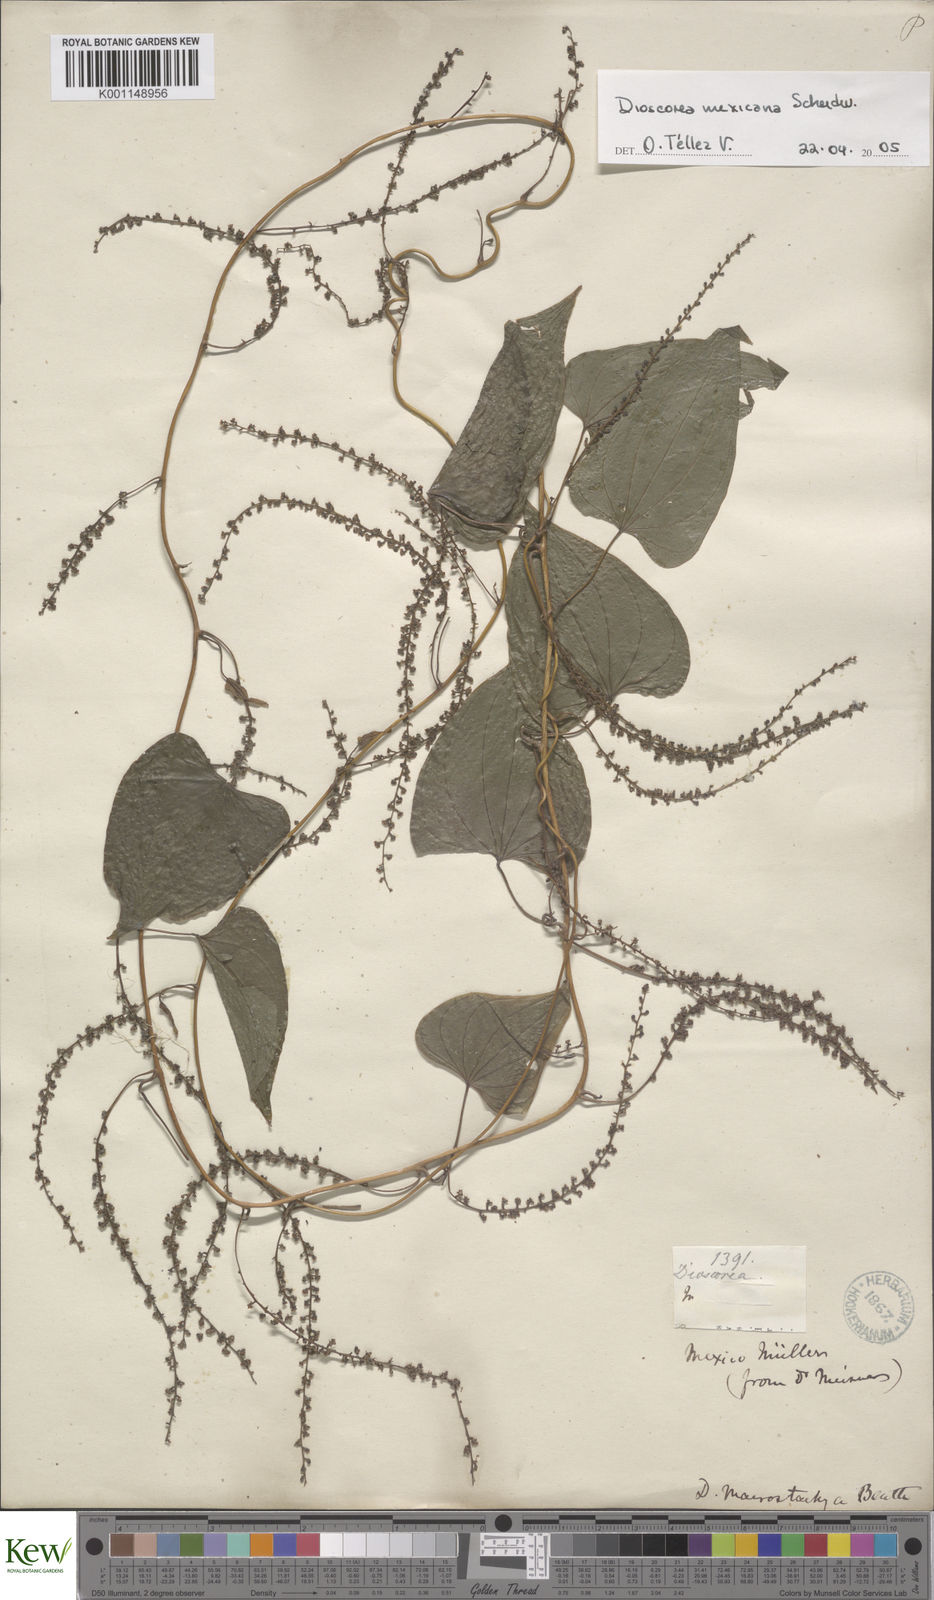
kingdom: Plantae
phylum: Tracheophyta
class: Liliopsida
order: Dioscoreales
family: Dioscoreaceae
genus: Dioscorea
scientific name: Dioscorea mexicana
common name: Mexican yam
